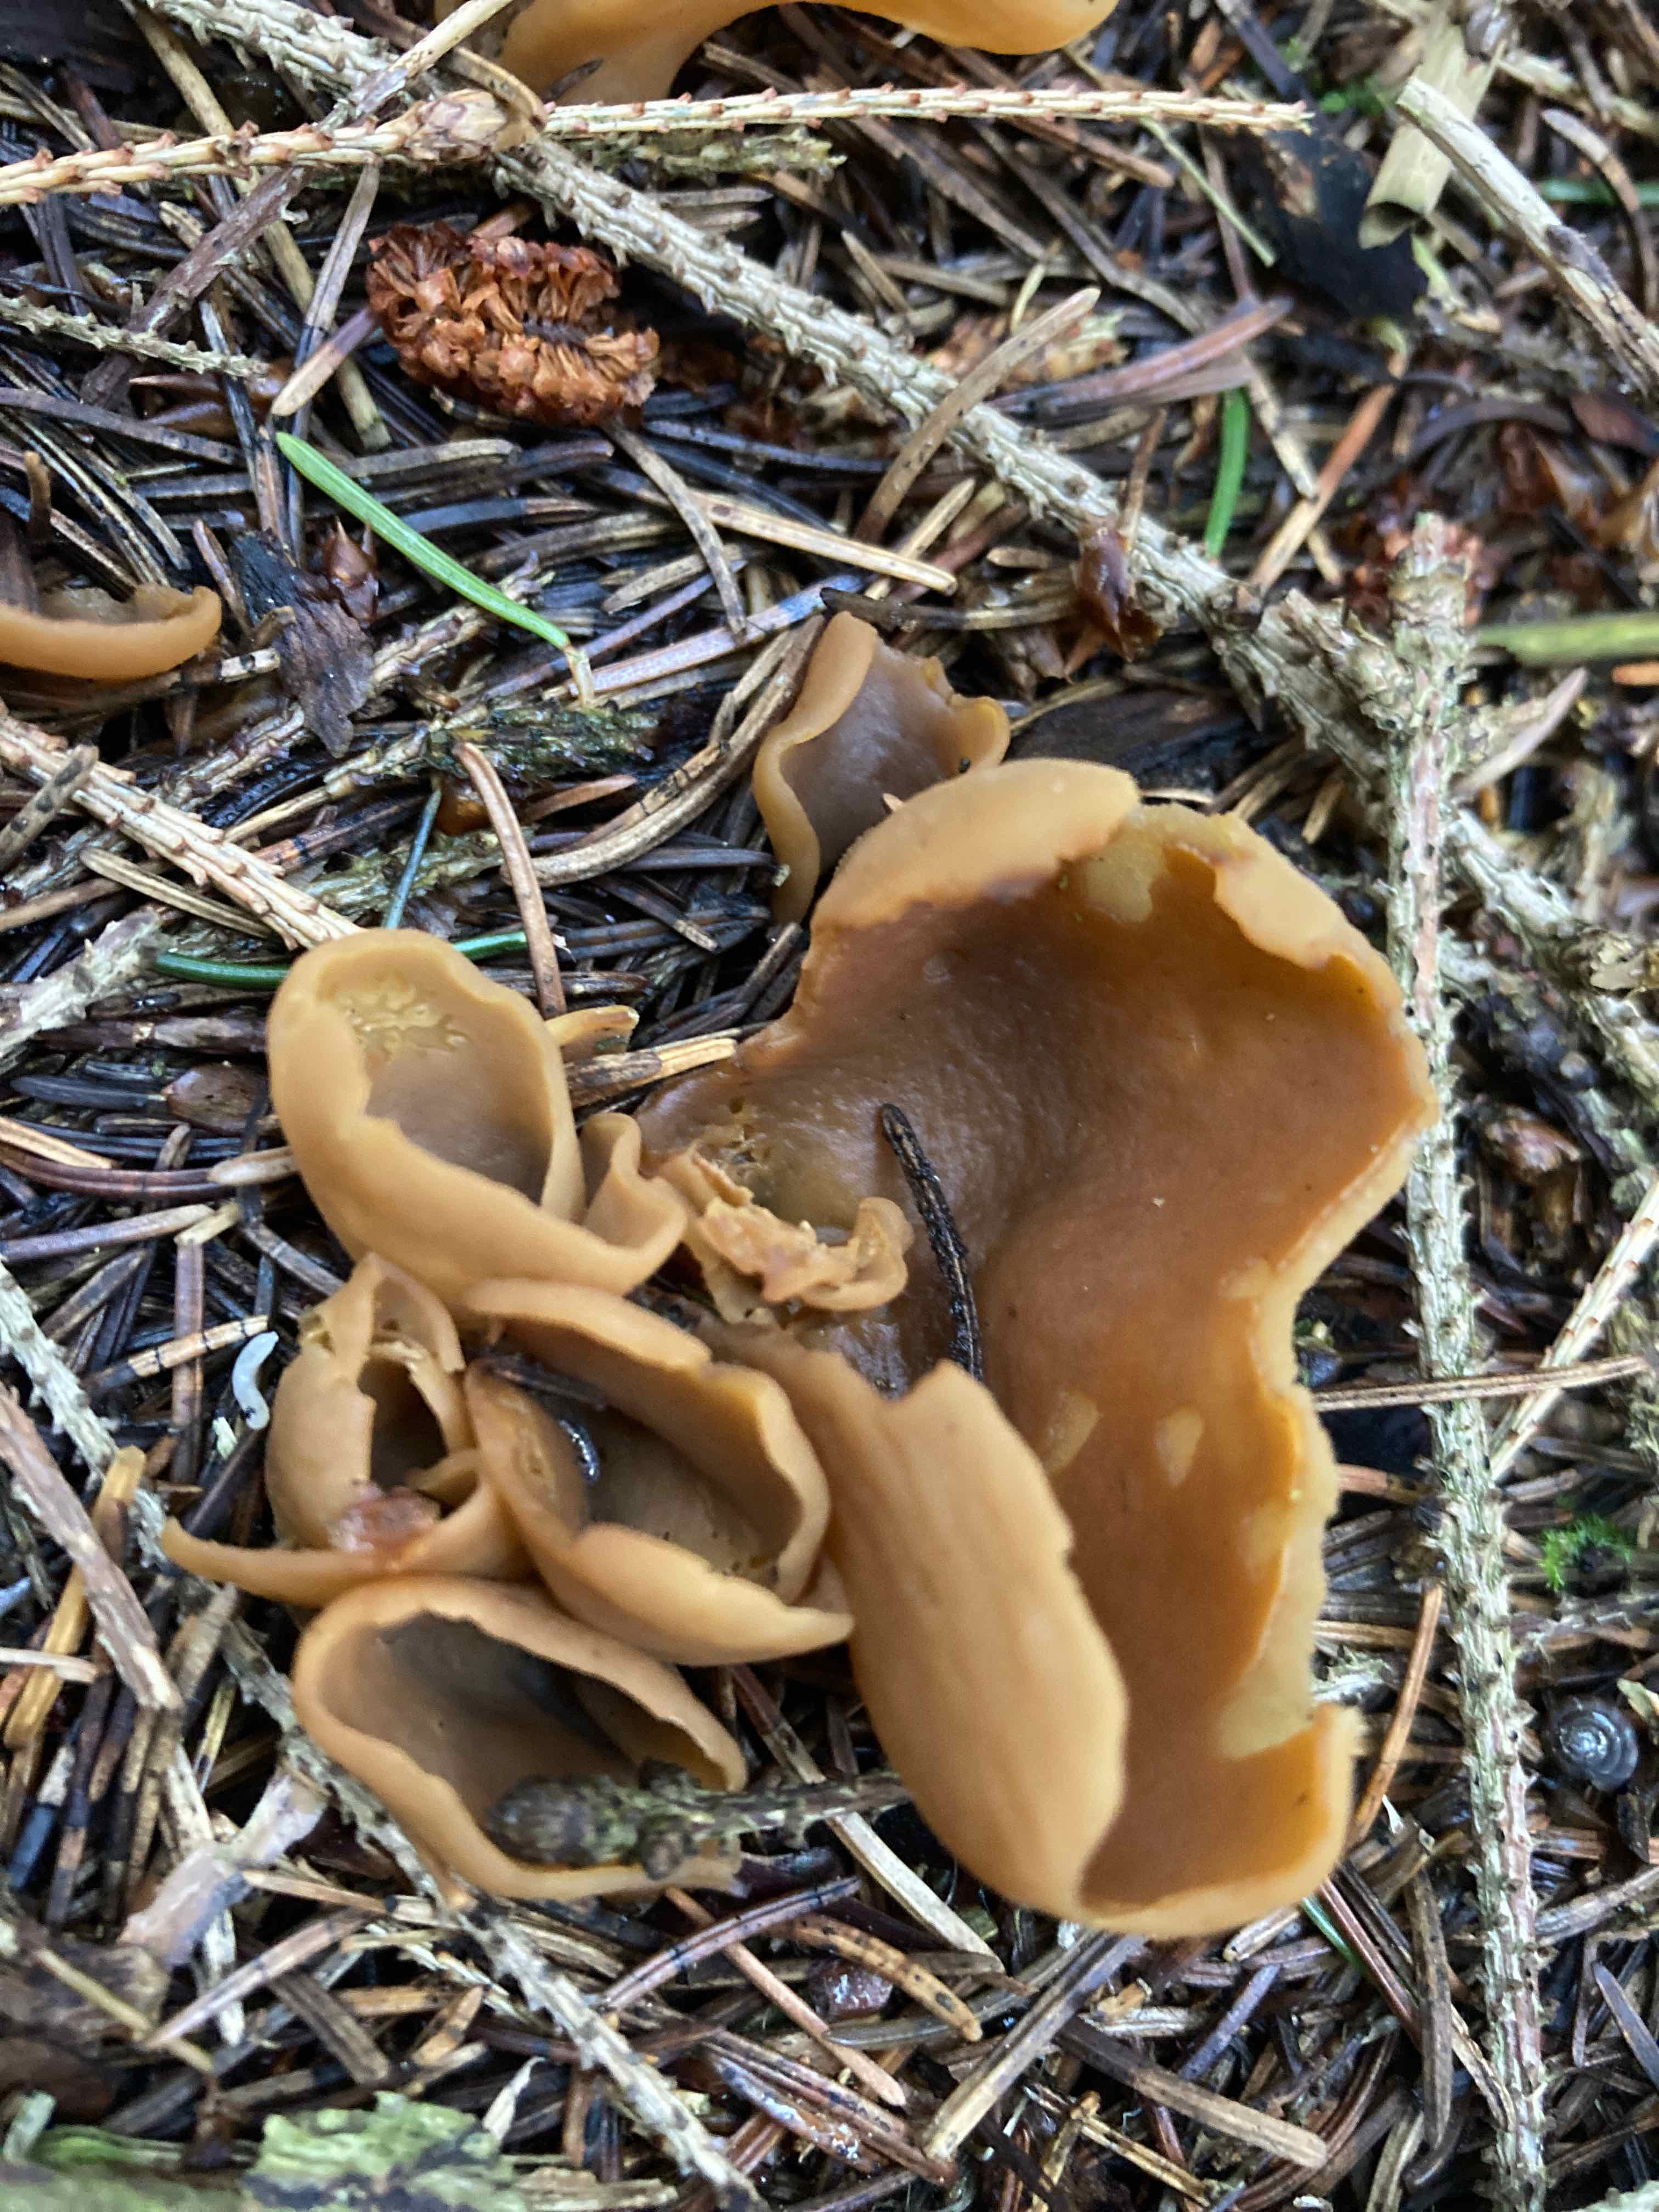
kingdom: Fungi
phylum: Ascomycota
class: Pezizomycetes
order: Pezizales
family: Otideaceae
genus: Otidea
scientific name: Otidea
